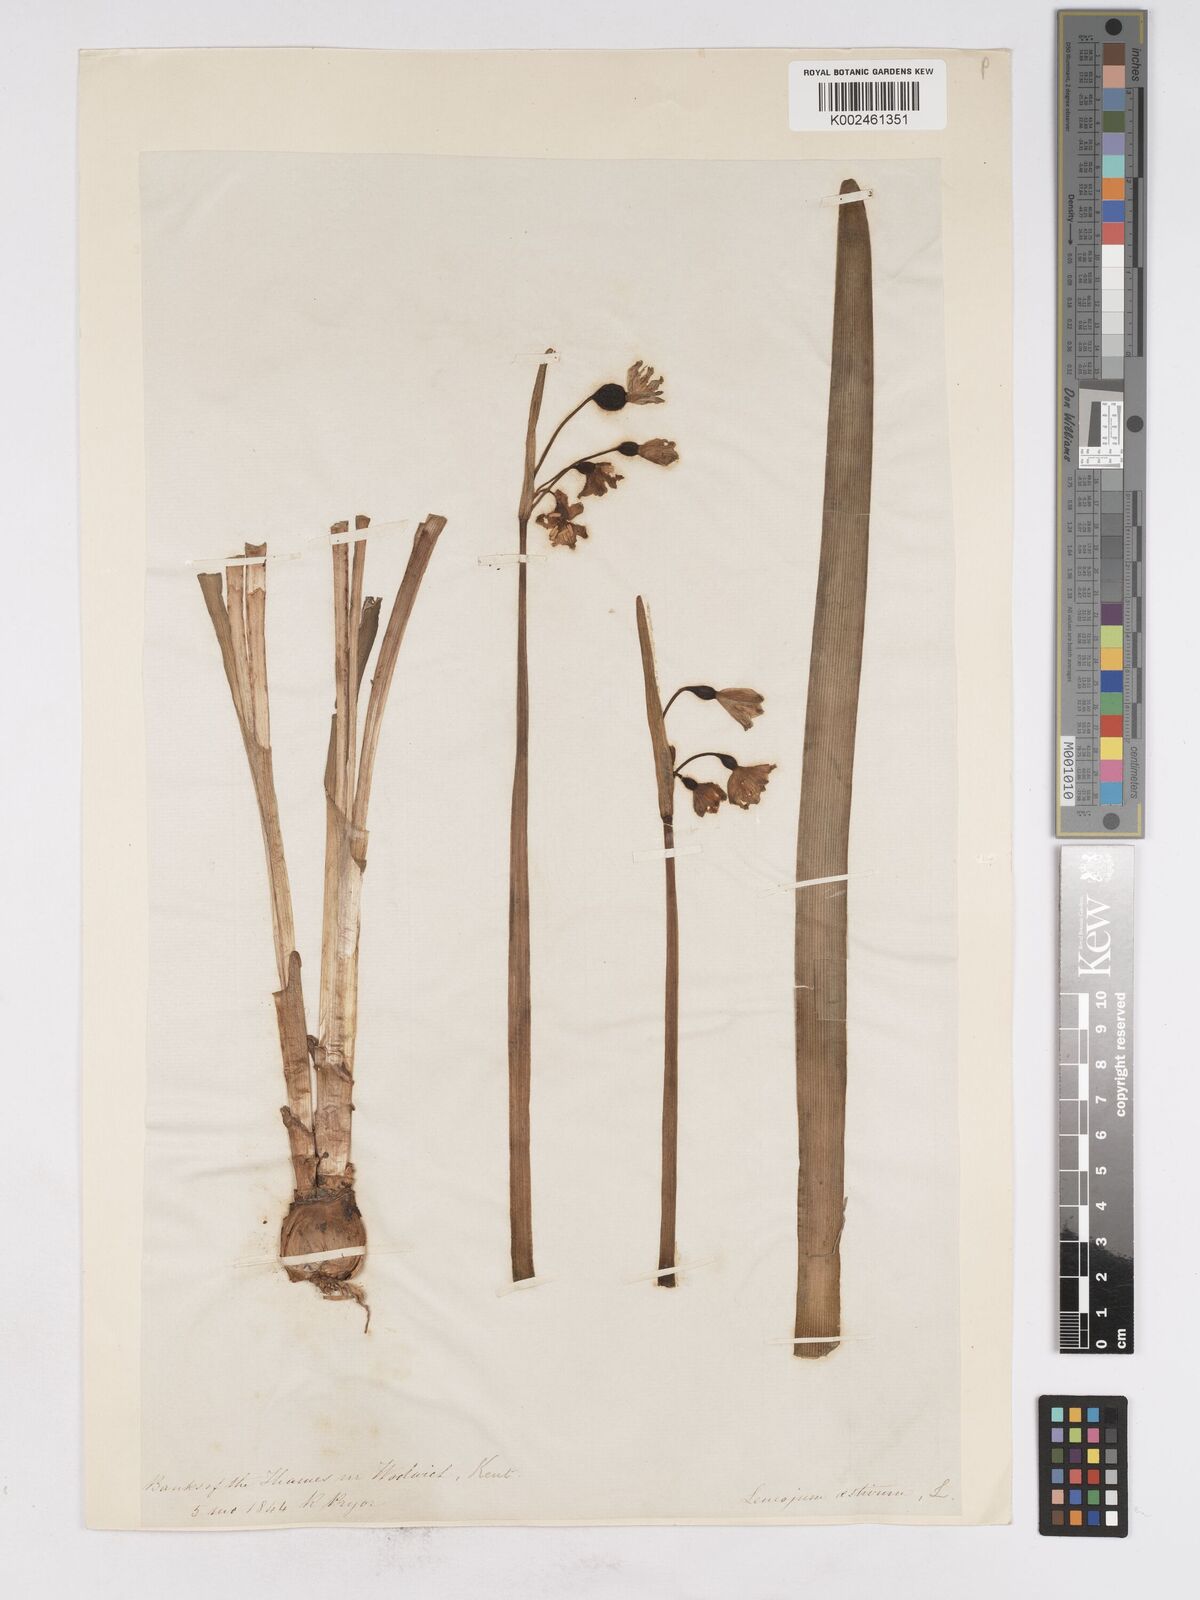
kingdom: Plantae
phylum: Tracheophyta
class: Liliopsida
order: Asparagales
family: Amaryllidaceae
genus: Leucojum
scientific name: Leucojum aestivum
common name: Summer snowflake
